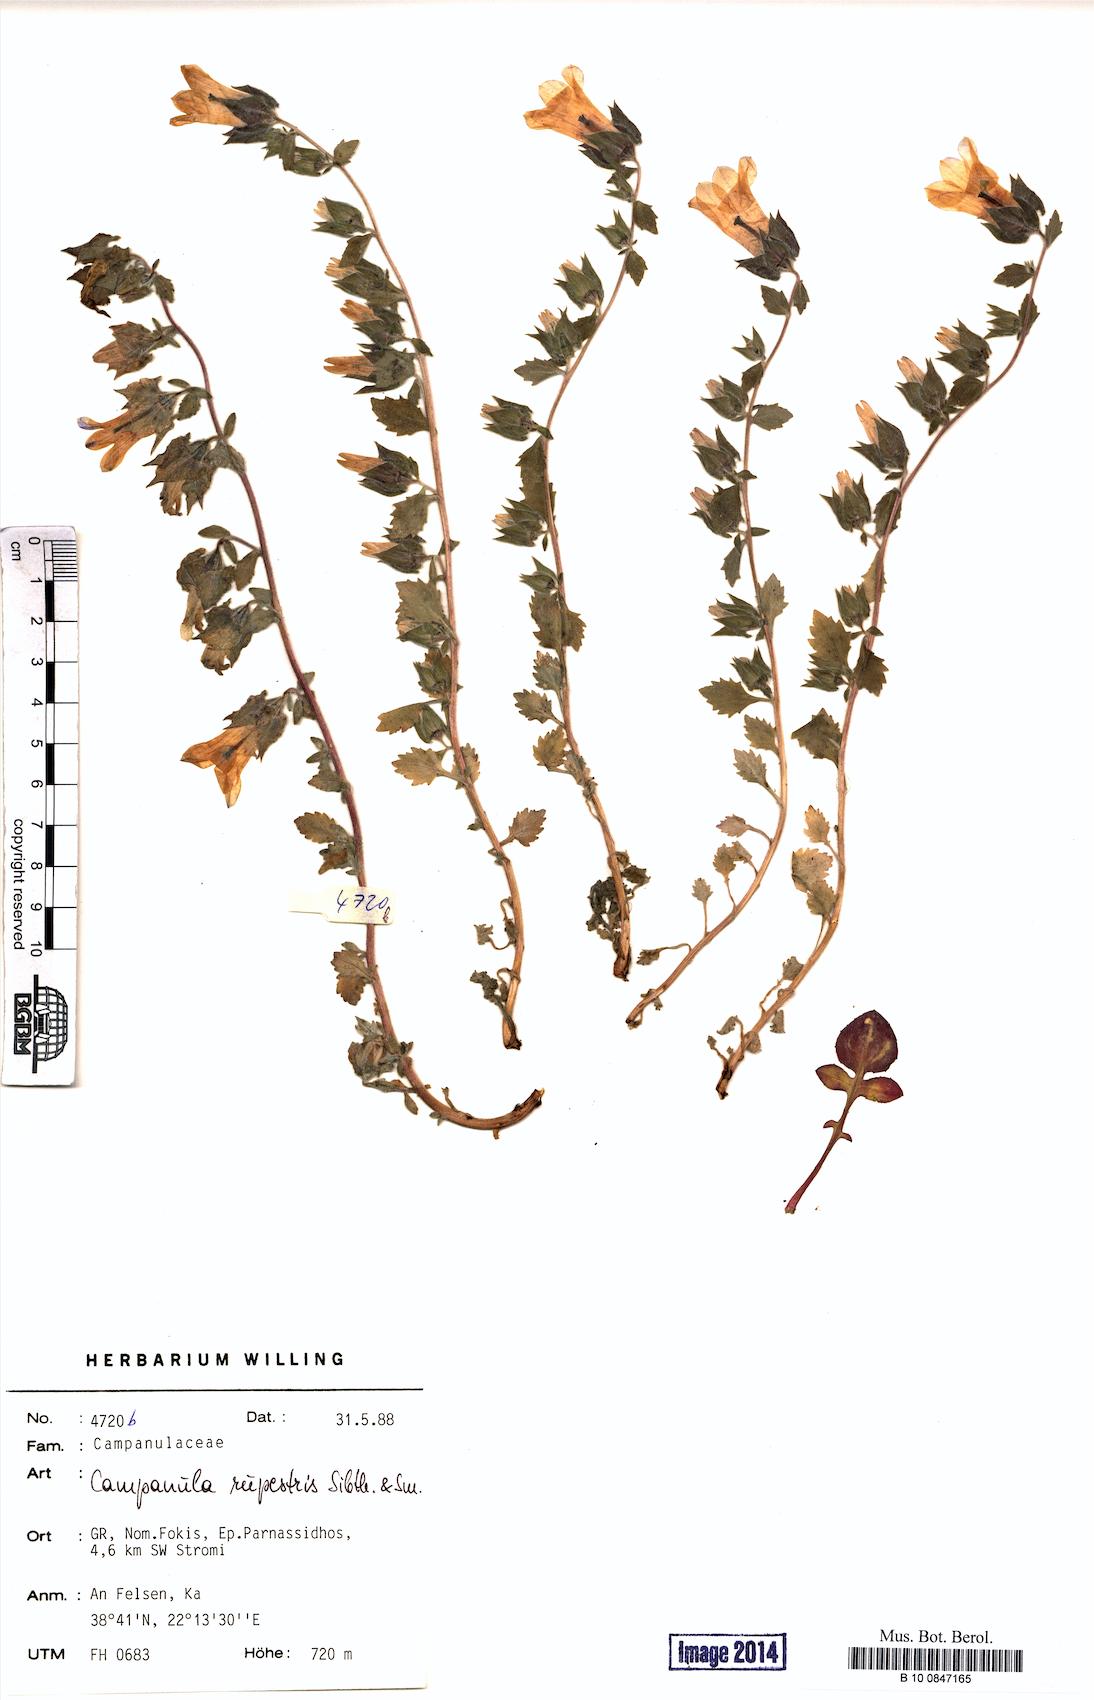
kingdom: Plantae
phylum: Tracheophyta
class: Magnoliopsida
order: Asterales
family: Campanulaceae
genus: Campanula
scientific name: Campanula rupestris
